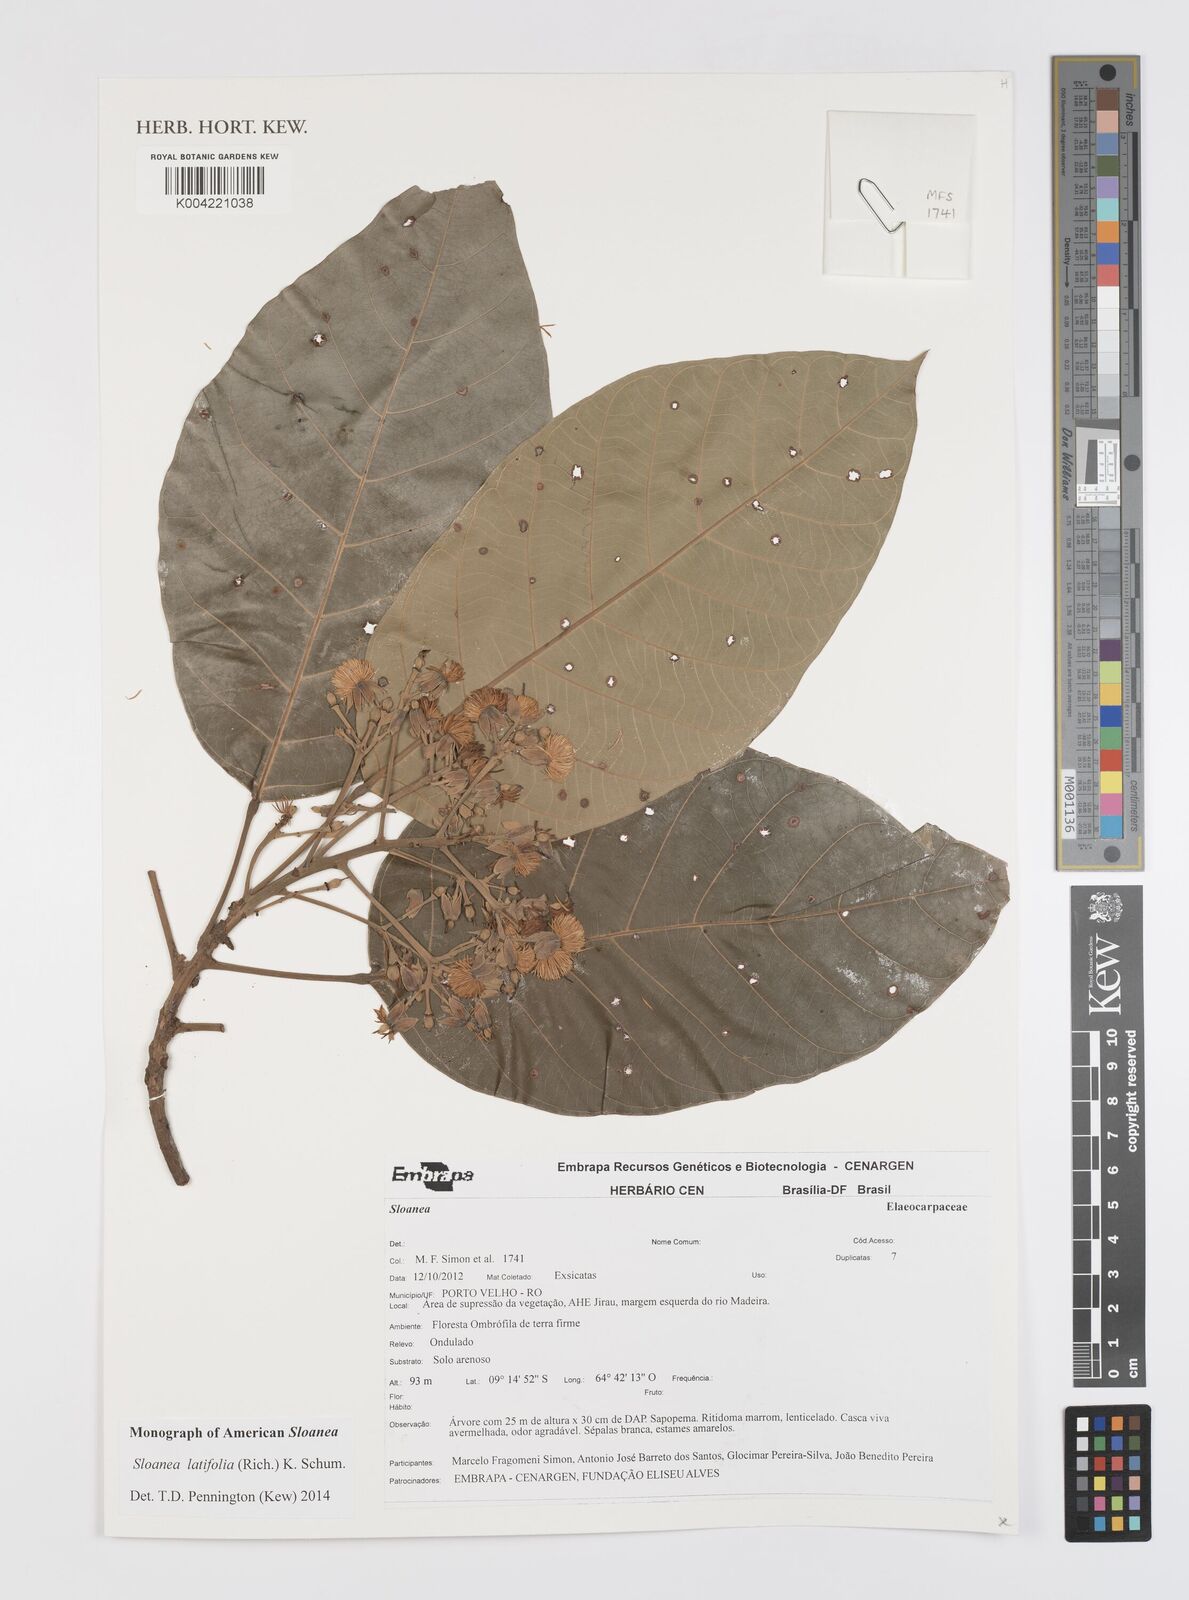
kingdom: Plantae
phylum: Tracheophyta
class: Magnoliopsida
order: Oxalidales
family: Elaeocarpaceae
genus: Sloanea
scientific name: Sloanea latifolia
